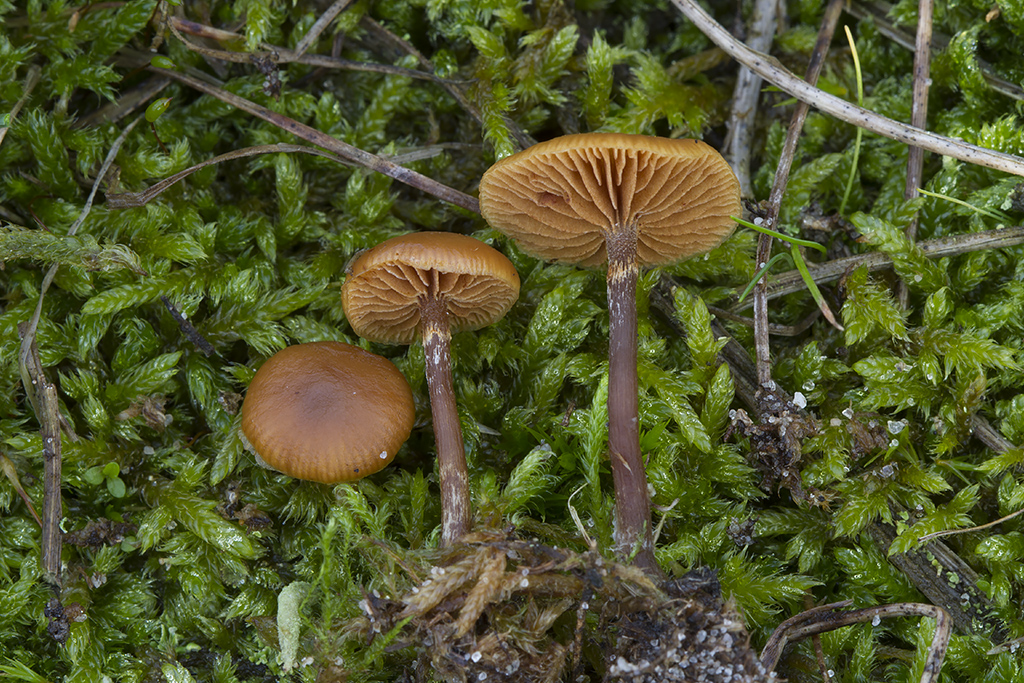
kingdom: Fungi
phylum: Basidiomycota
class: Agaricomycetes
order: Agaricales
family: Hymenogastraceae
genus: Galerina
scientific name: Galerina esteve-raventosii
